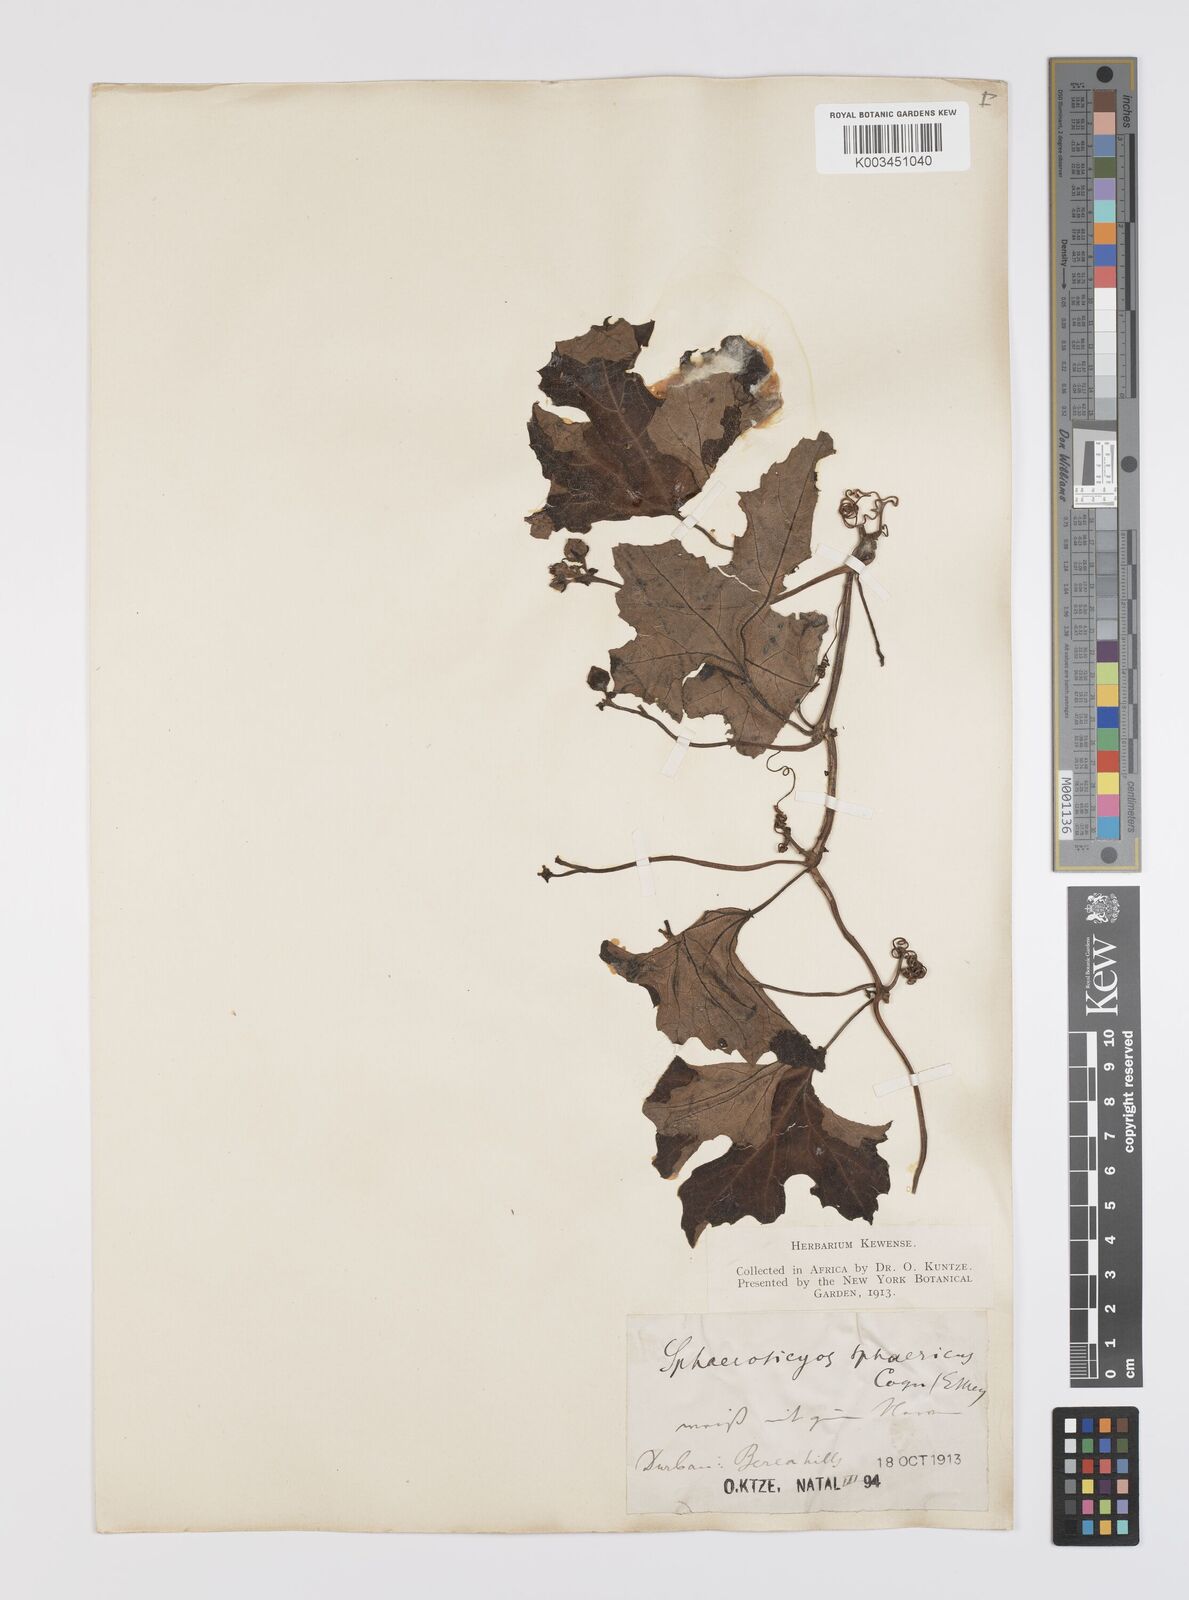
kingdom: Plantae
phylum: Tracheophyta
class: Magnoliopsida
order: Cucurbitales
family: Cucurbitaceae
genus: Lagenaria
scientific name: Lagenaria sphaerica
